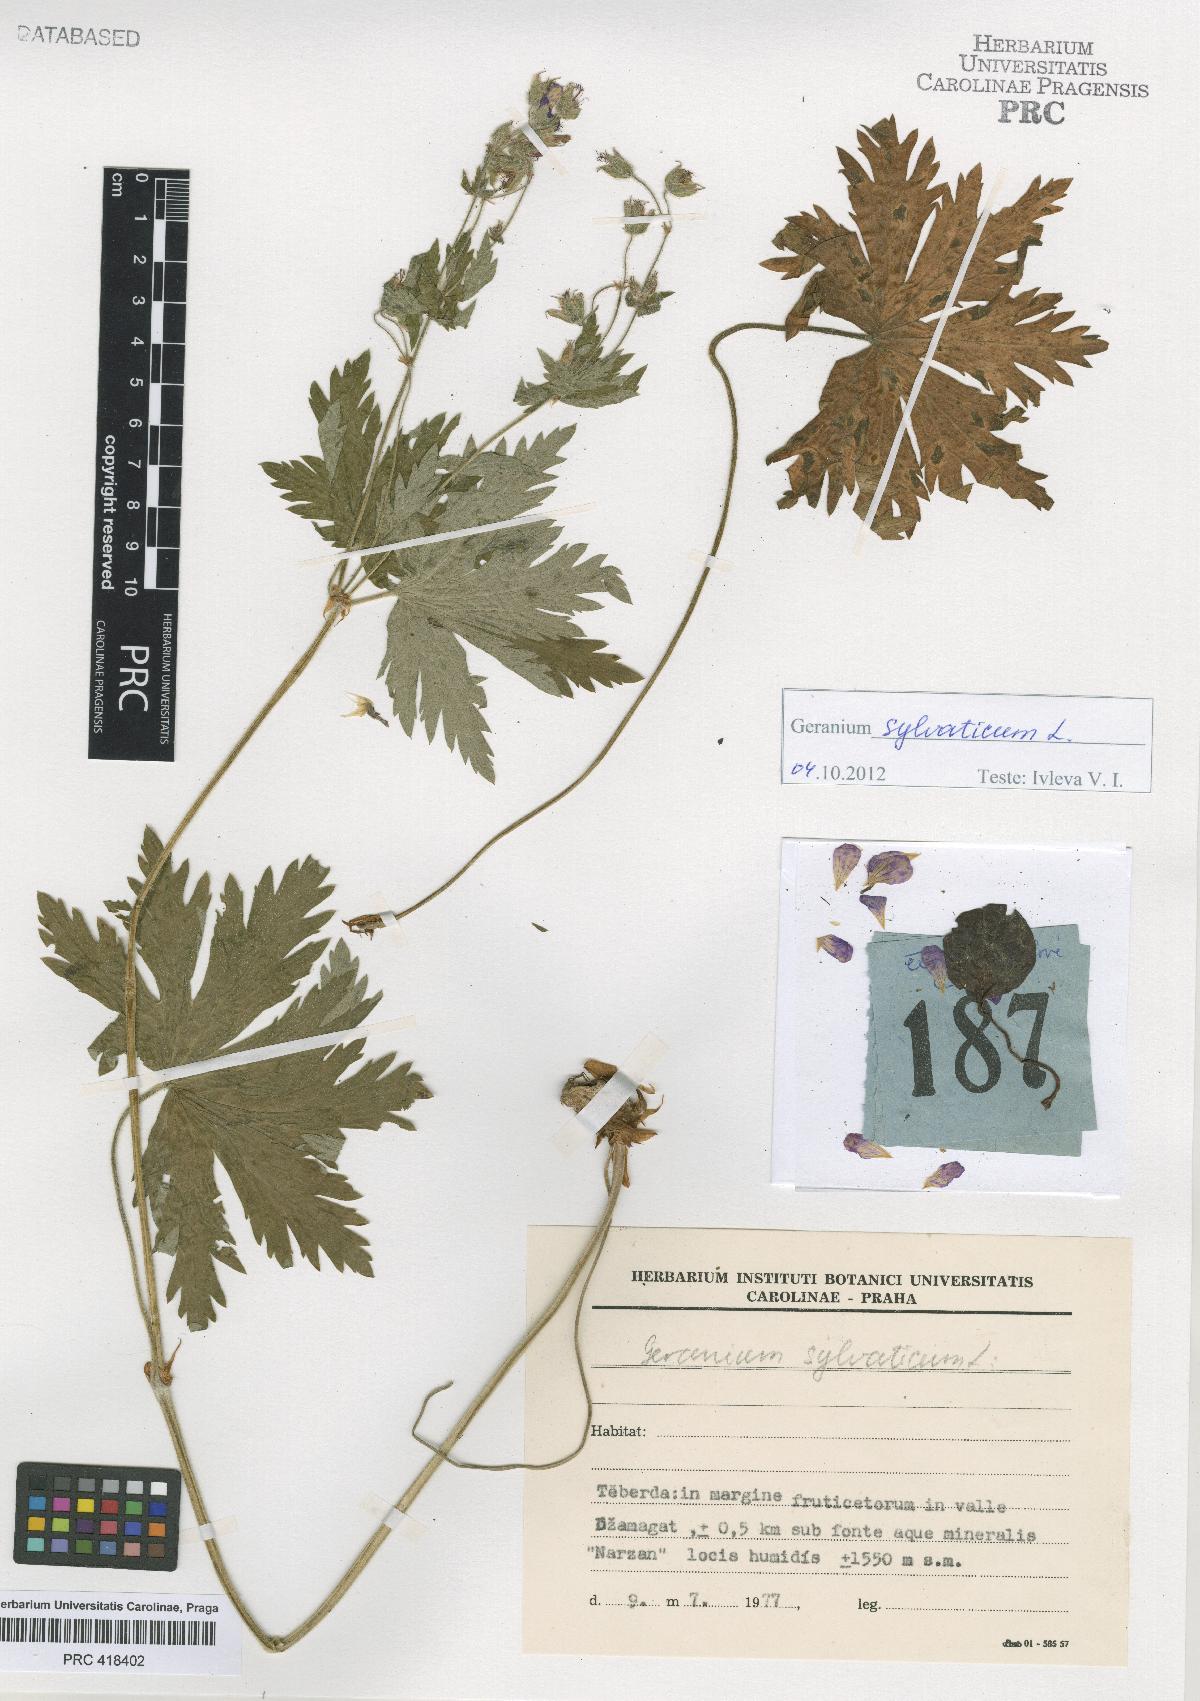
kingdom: Plantae
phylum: Tracheophyta
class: Magnoliopsida
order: Geraniales
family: Geraniaceae
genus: Geranium
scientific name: Geranium sylvaticum
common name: Wood crane's-bill
